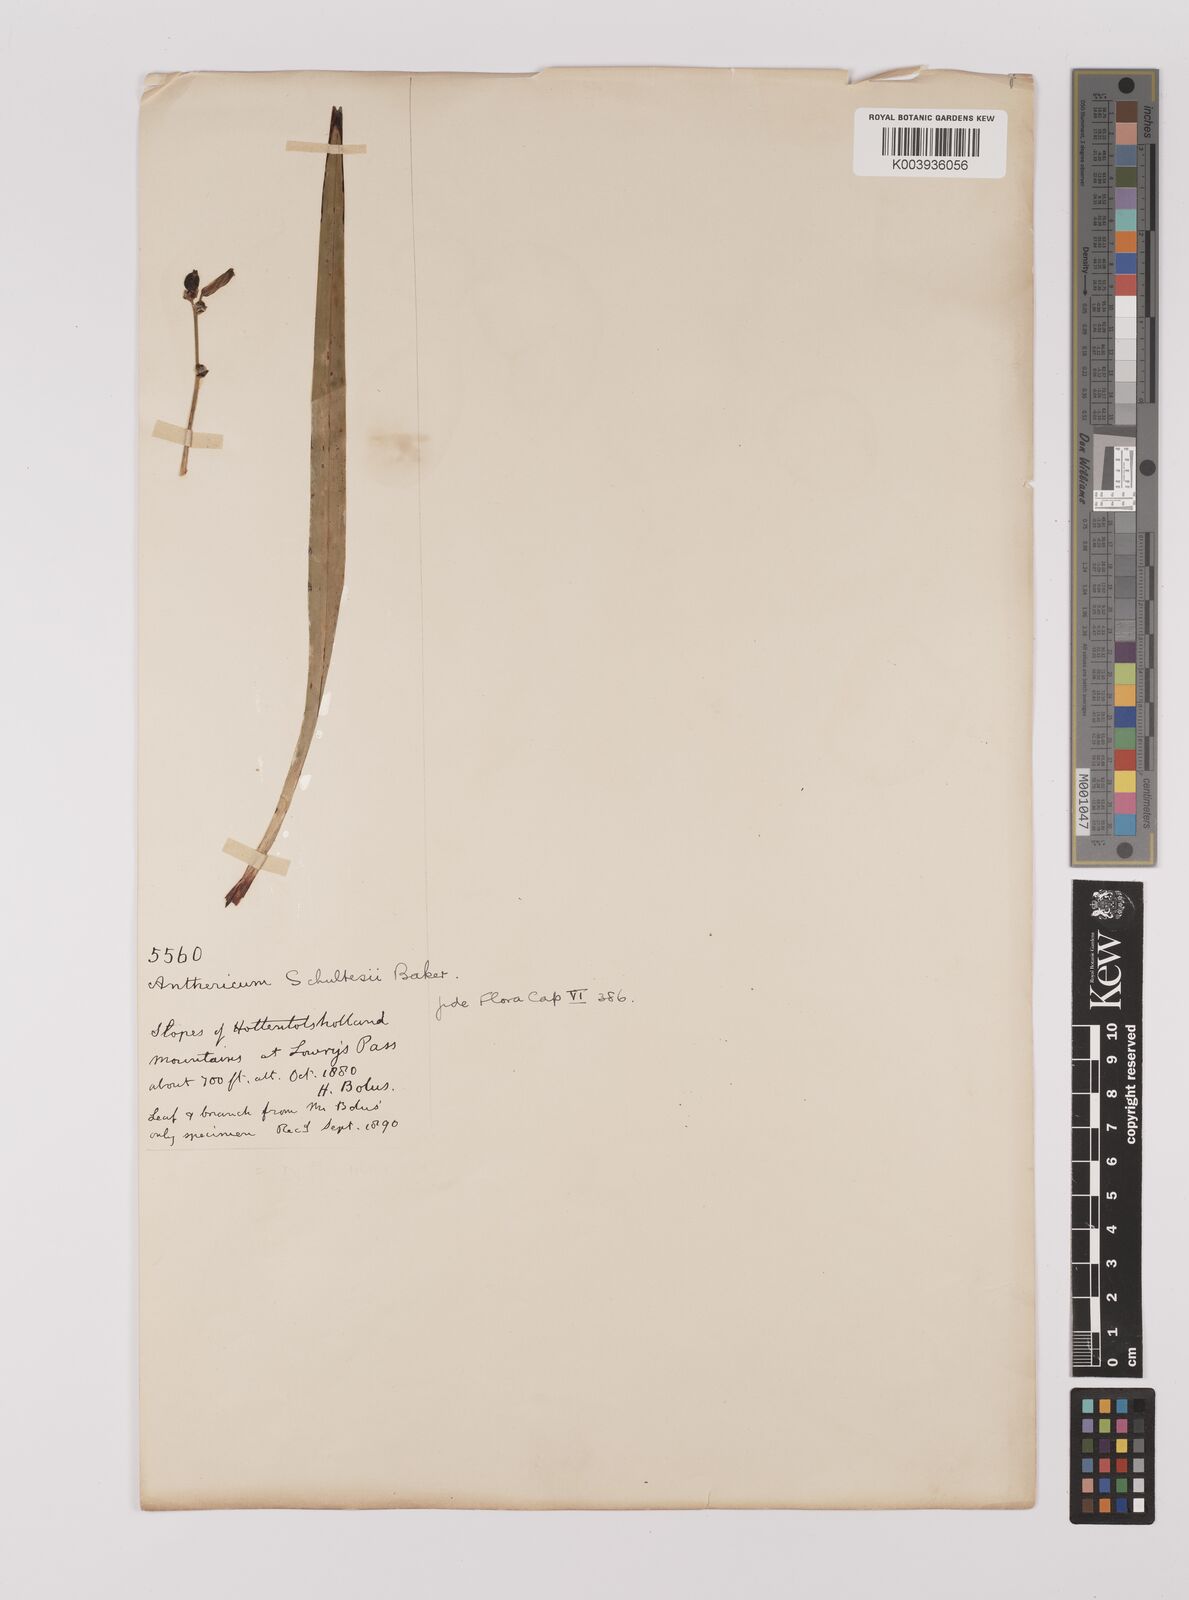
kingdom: Plantae
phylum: Tracheophyta
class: Liliopsida
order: Asparagales
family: Asparagaceae
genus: Chlorophytum
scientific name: Chlorophytum rigidum
